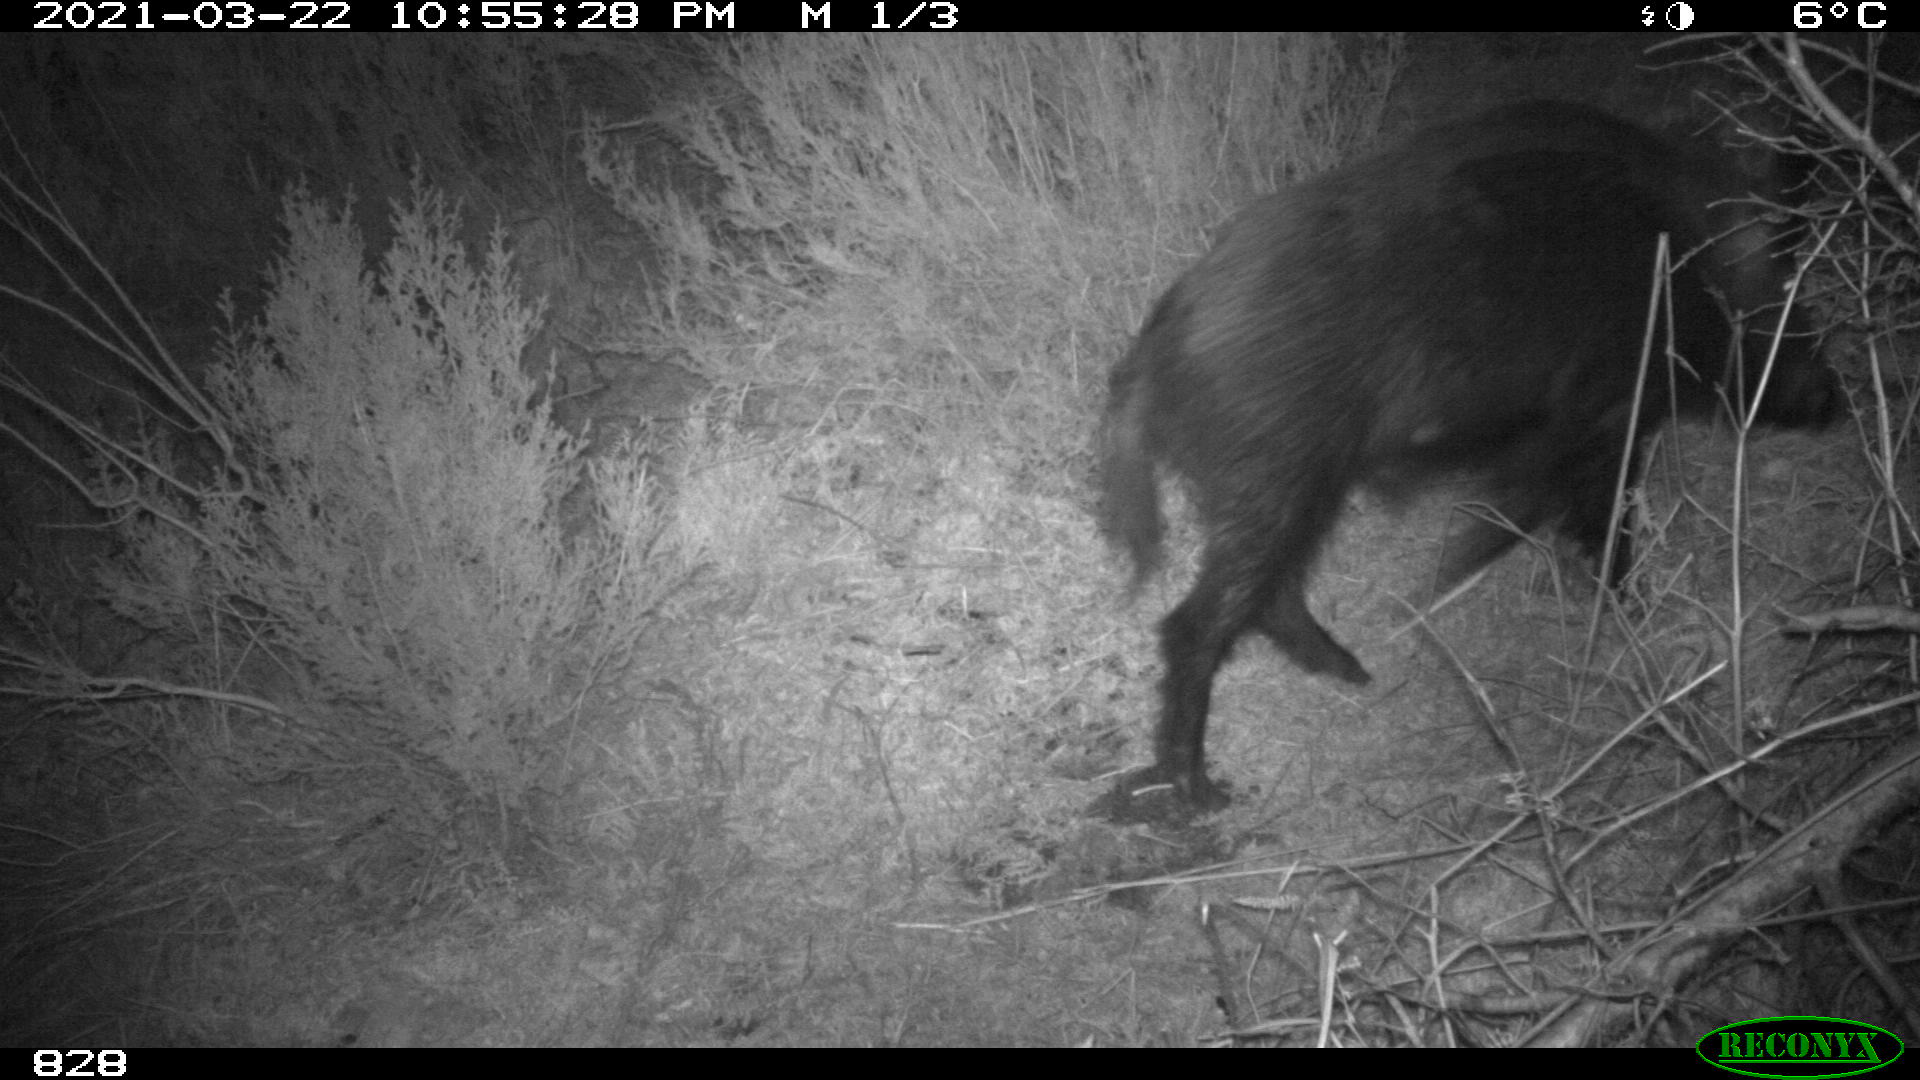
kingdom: Animalia
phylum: Chordata
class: Mammalia
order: Artiodactyla
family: Suidae
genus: Sus
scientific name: Sus scrofa
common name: Wild boar
